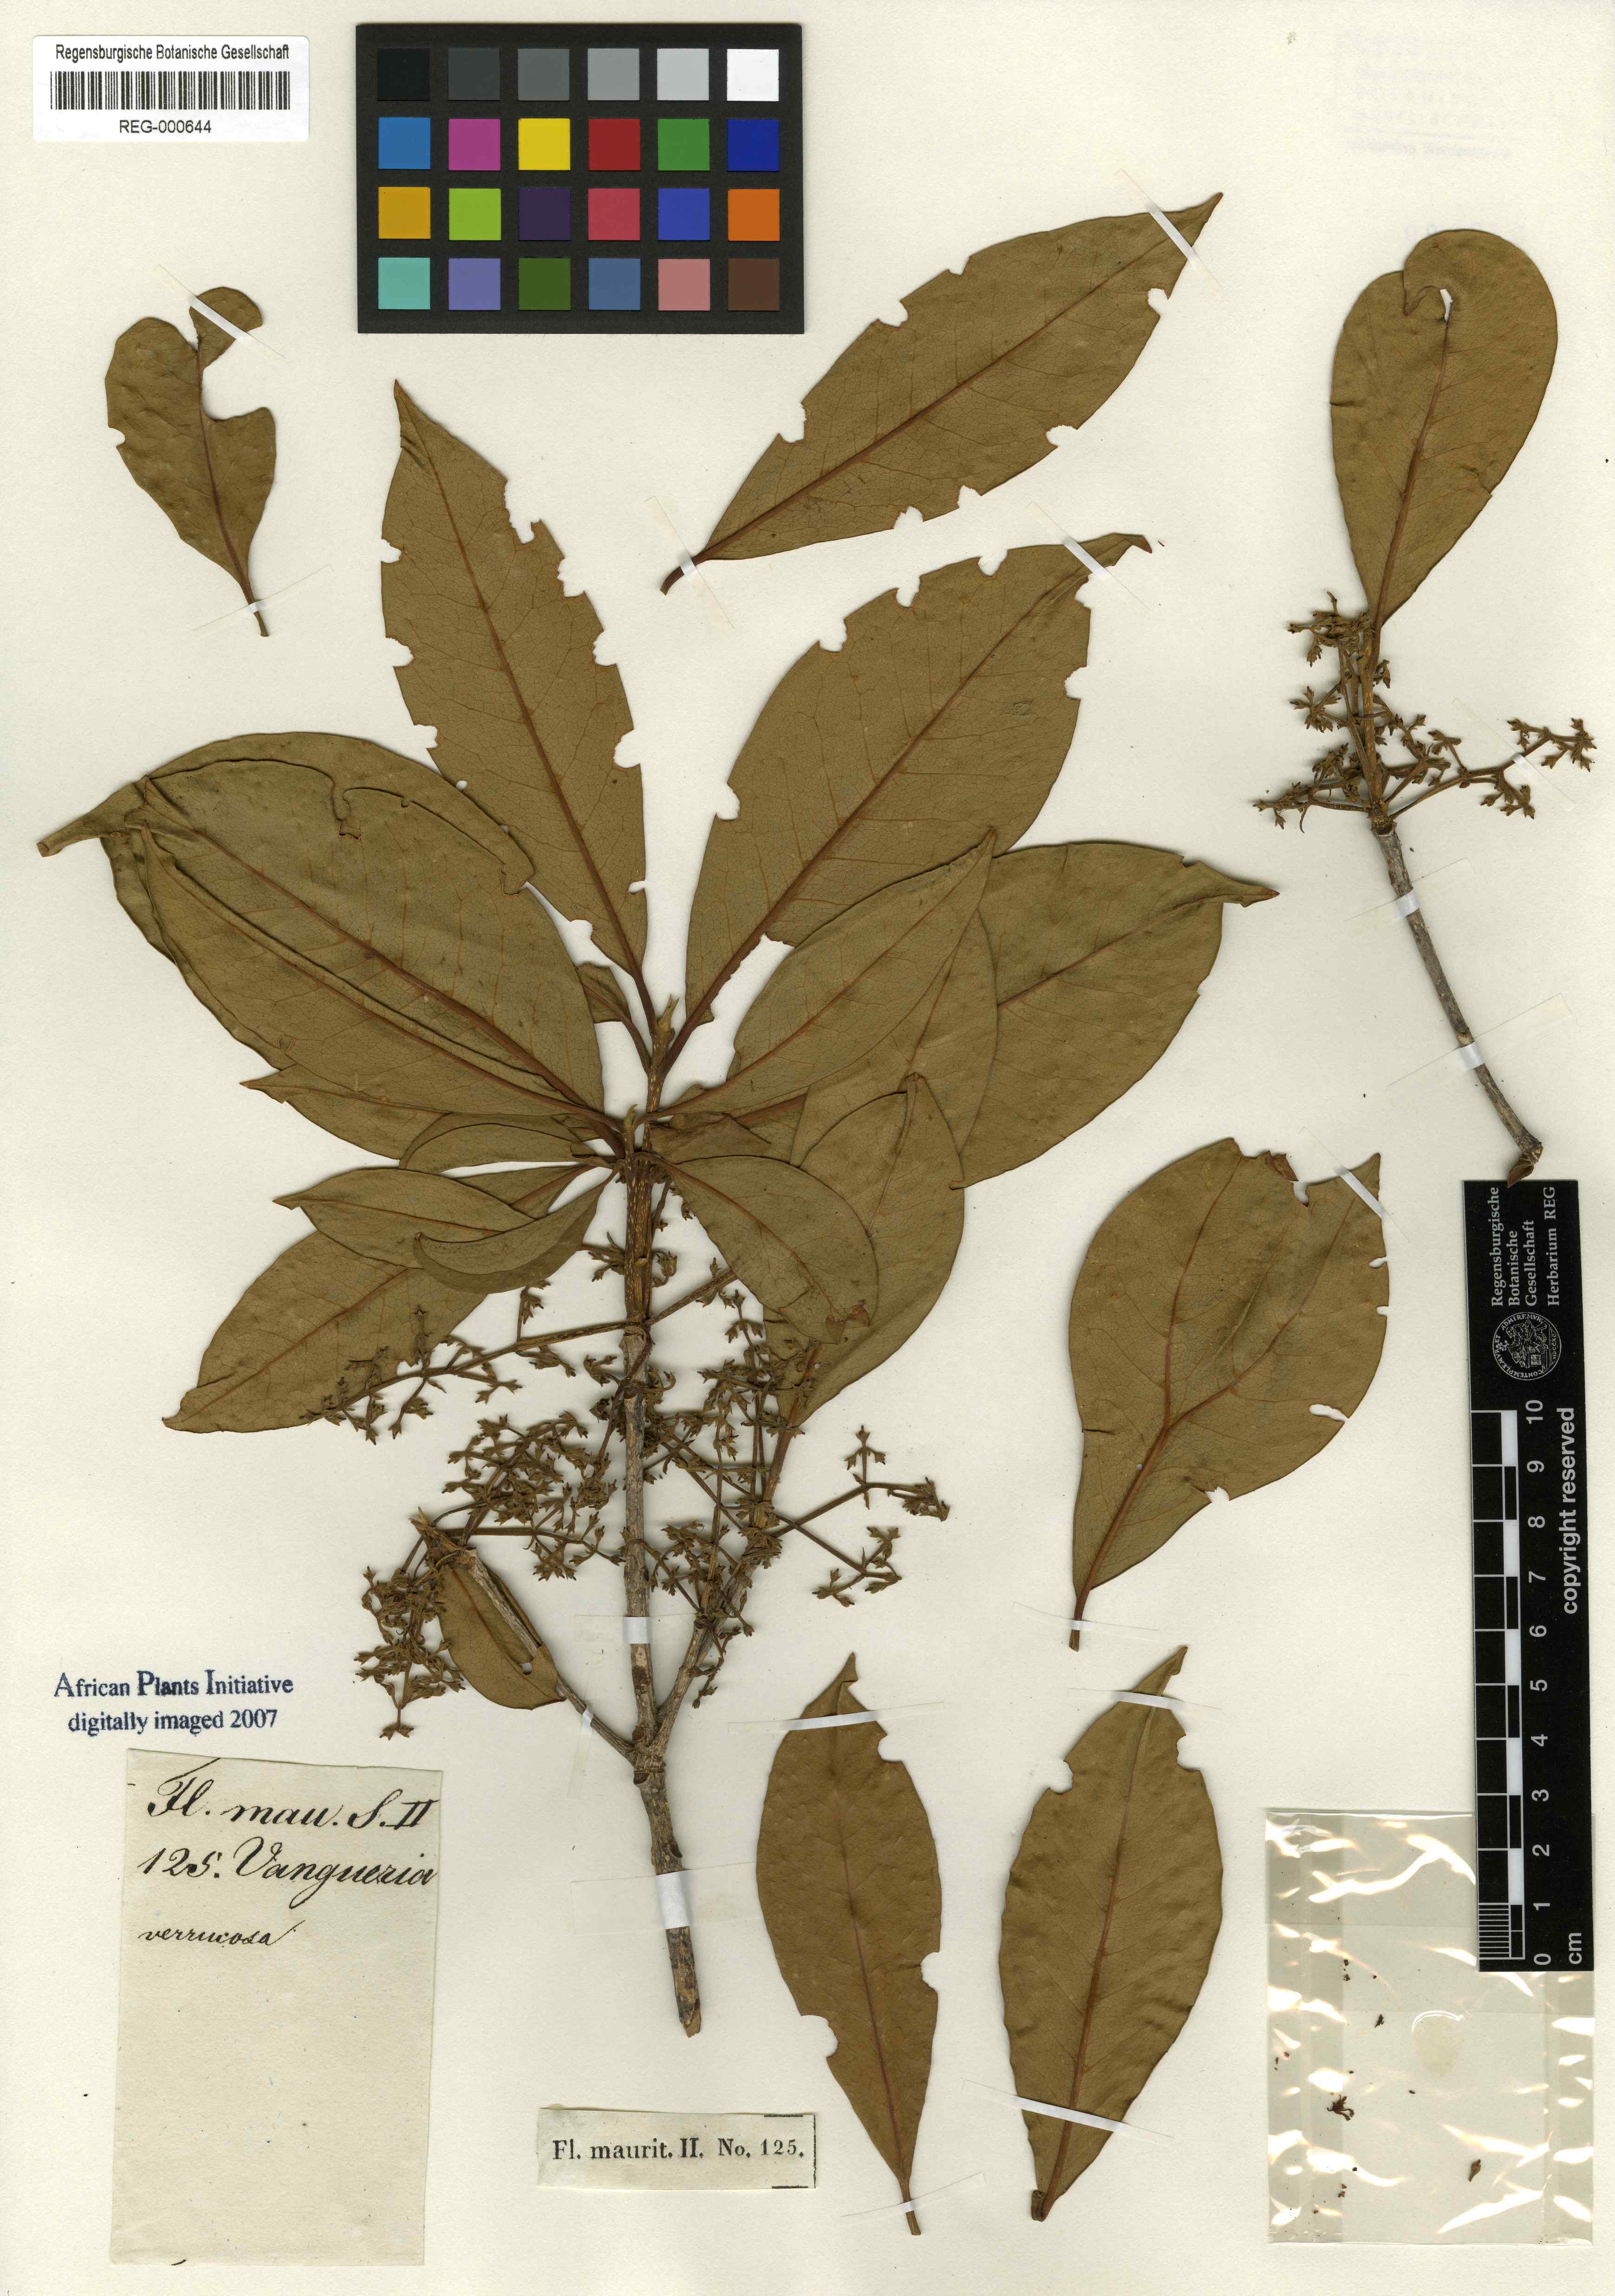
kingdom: Plantae
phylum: Tracheophyta
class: Magnoliopsida
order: Gentianales
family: Rubiaceae
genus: Rytigynia
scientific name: Rytigynia verruculosa
